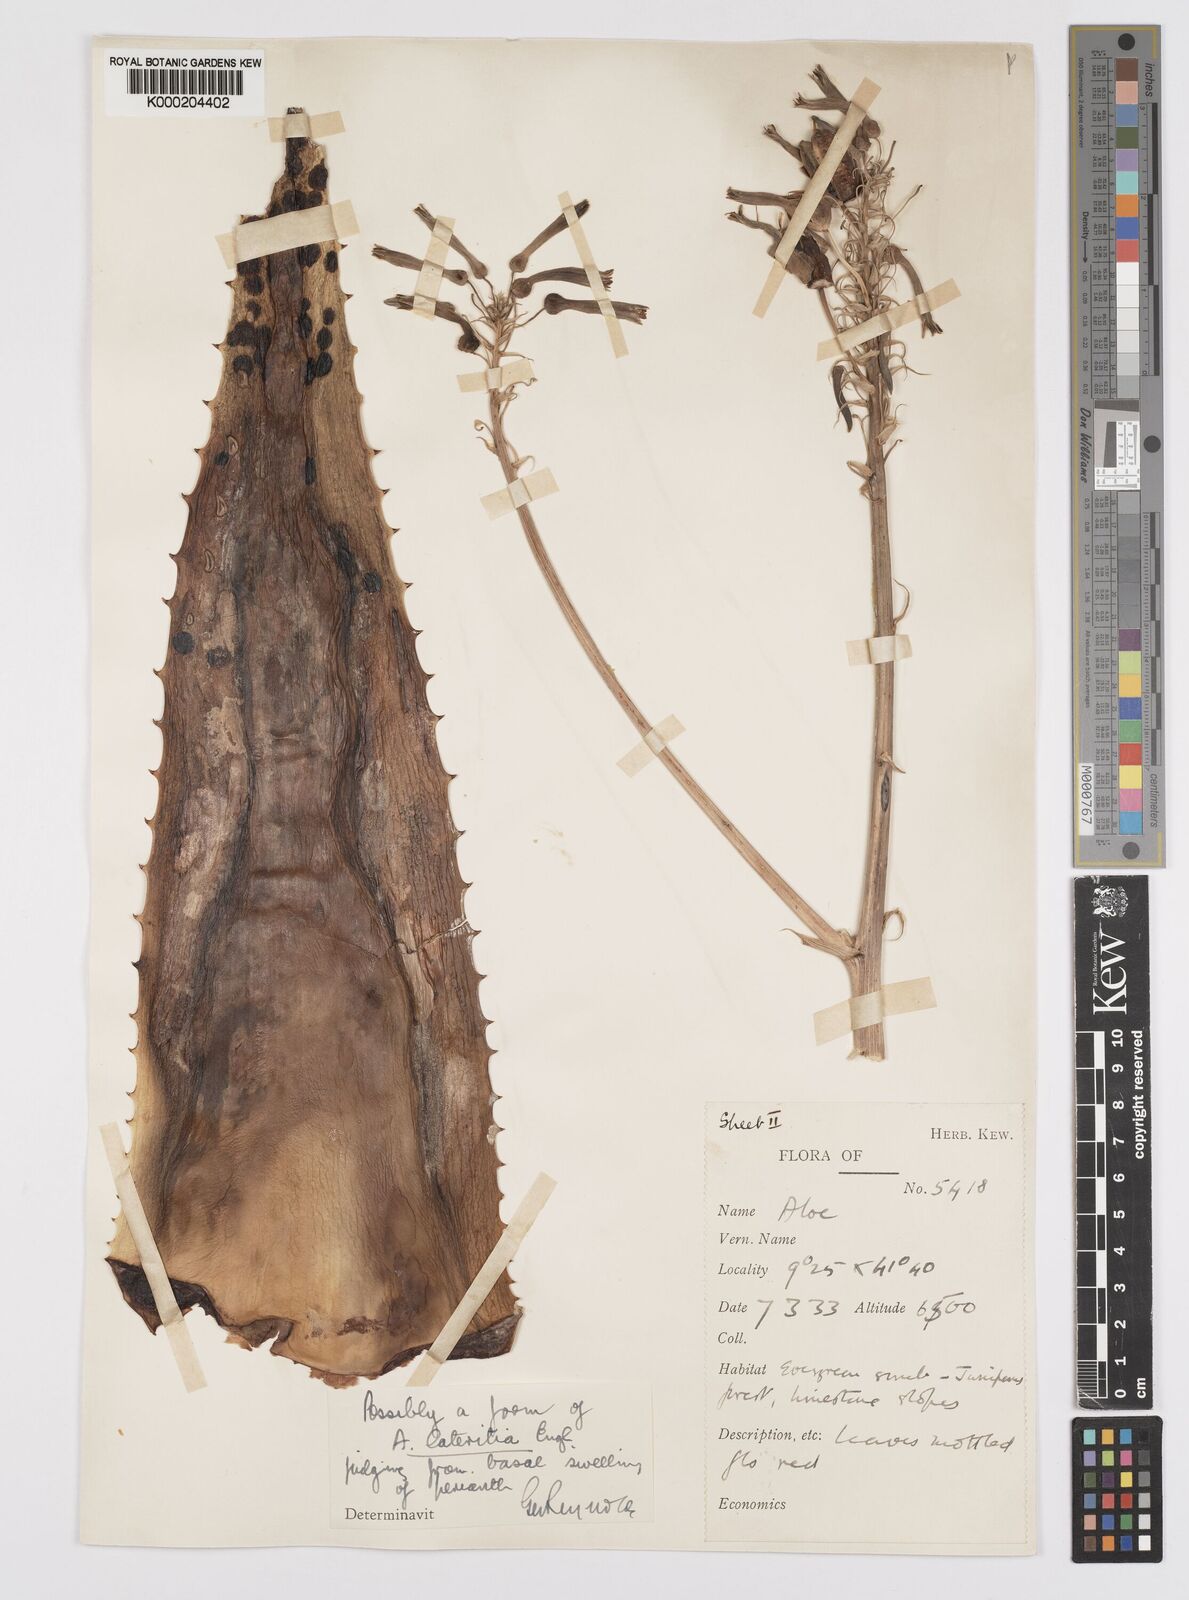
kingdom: Plantae
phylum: Tracheophyta
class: Liliopsida
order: Asparagales
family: Asphodelaceae
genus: Aloe
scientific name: Aloe macrocarpa
